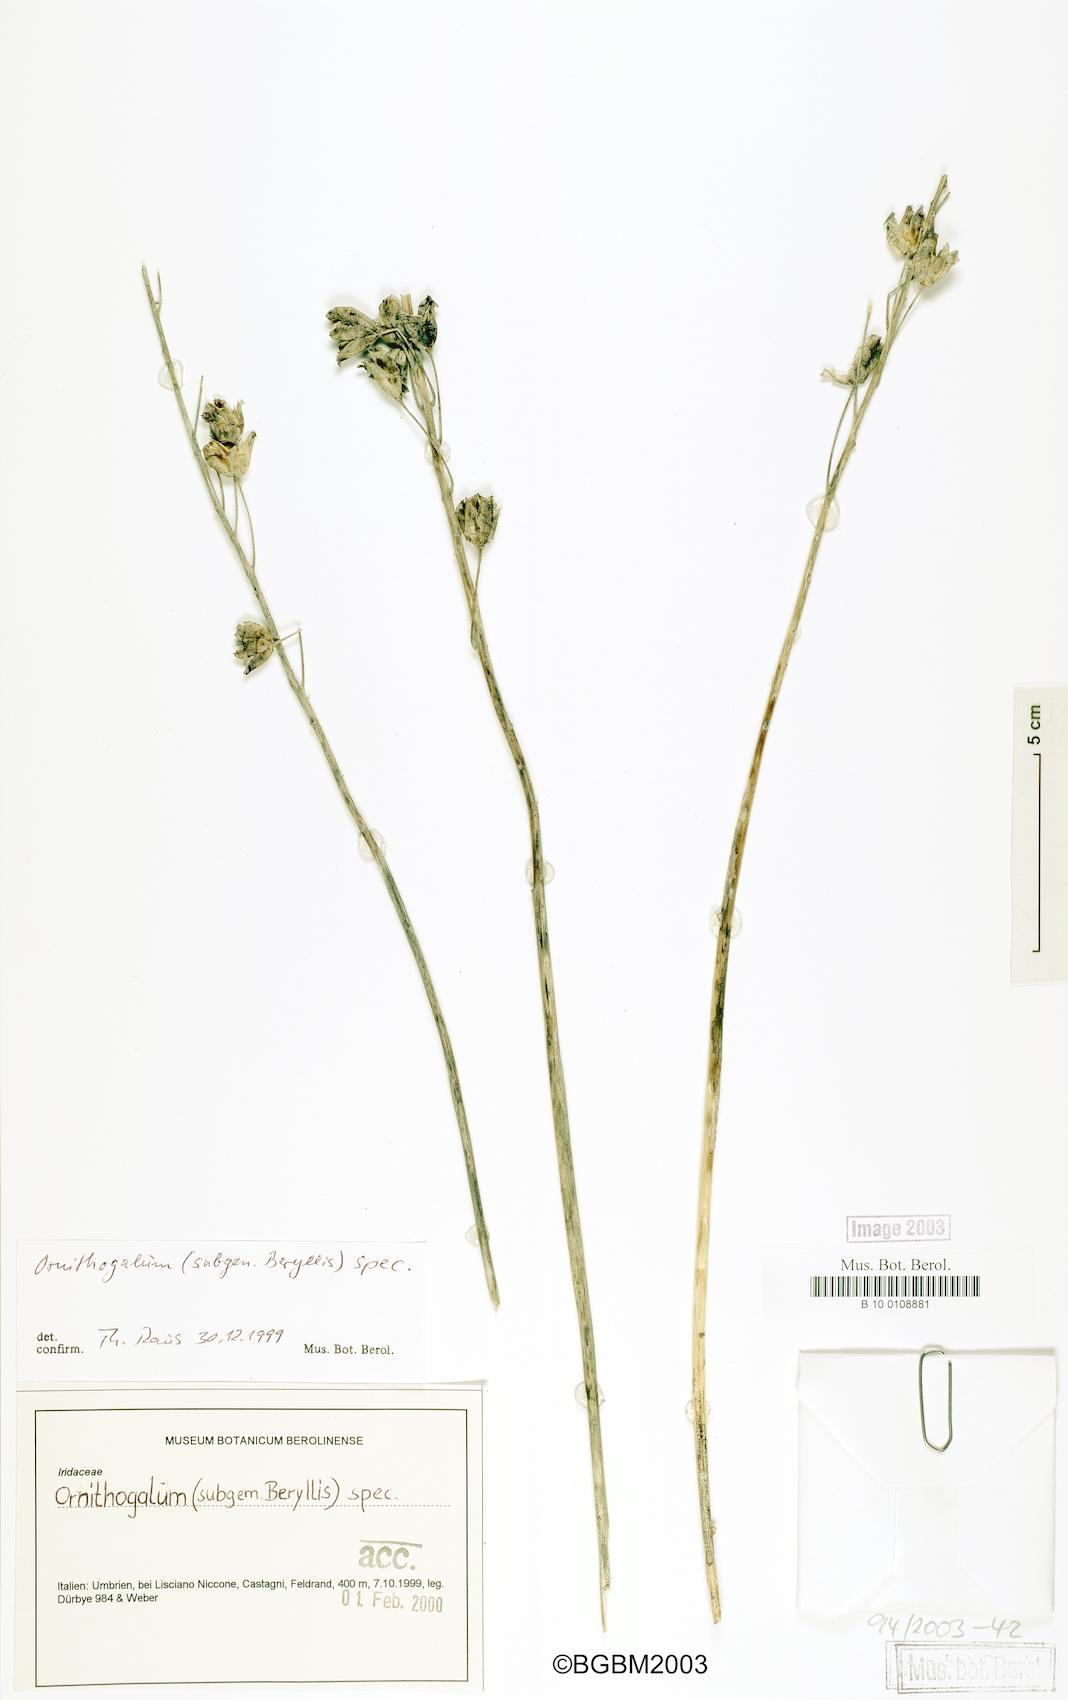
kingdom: Plantae
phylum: Tracheophyta
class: Liliopsida
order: Liliales
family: Liliaceae
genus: Ornithogalum
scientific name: Ornithogalum
